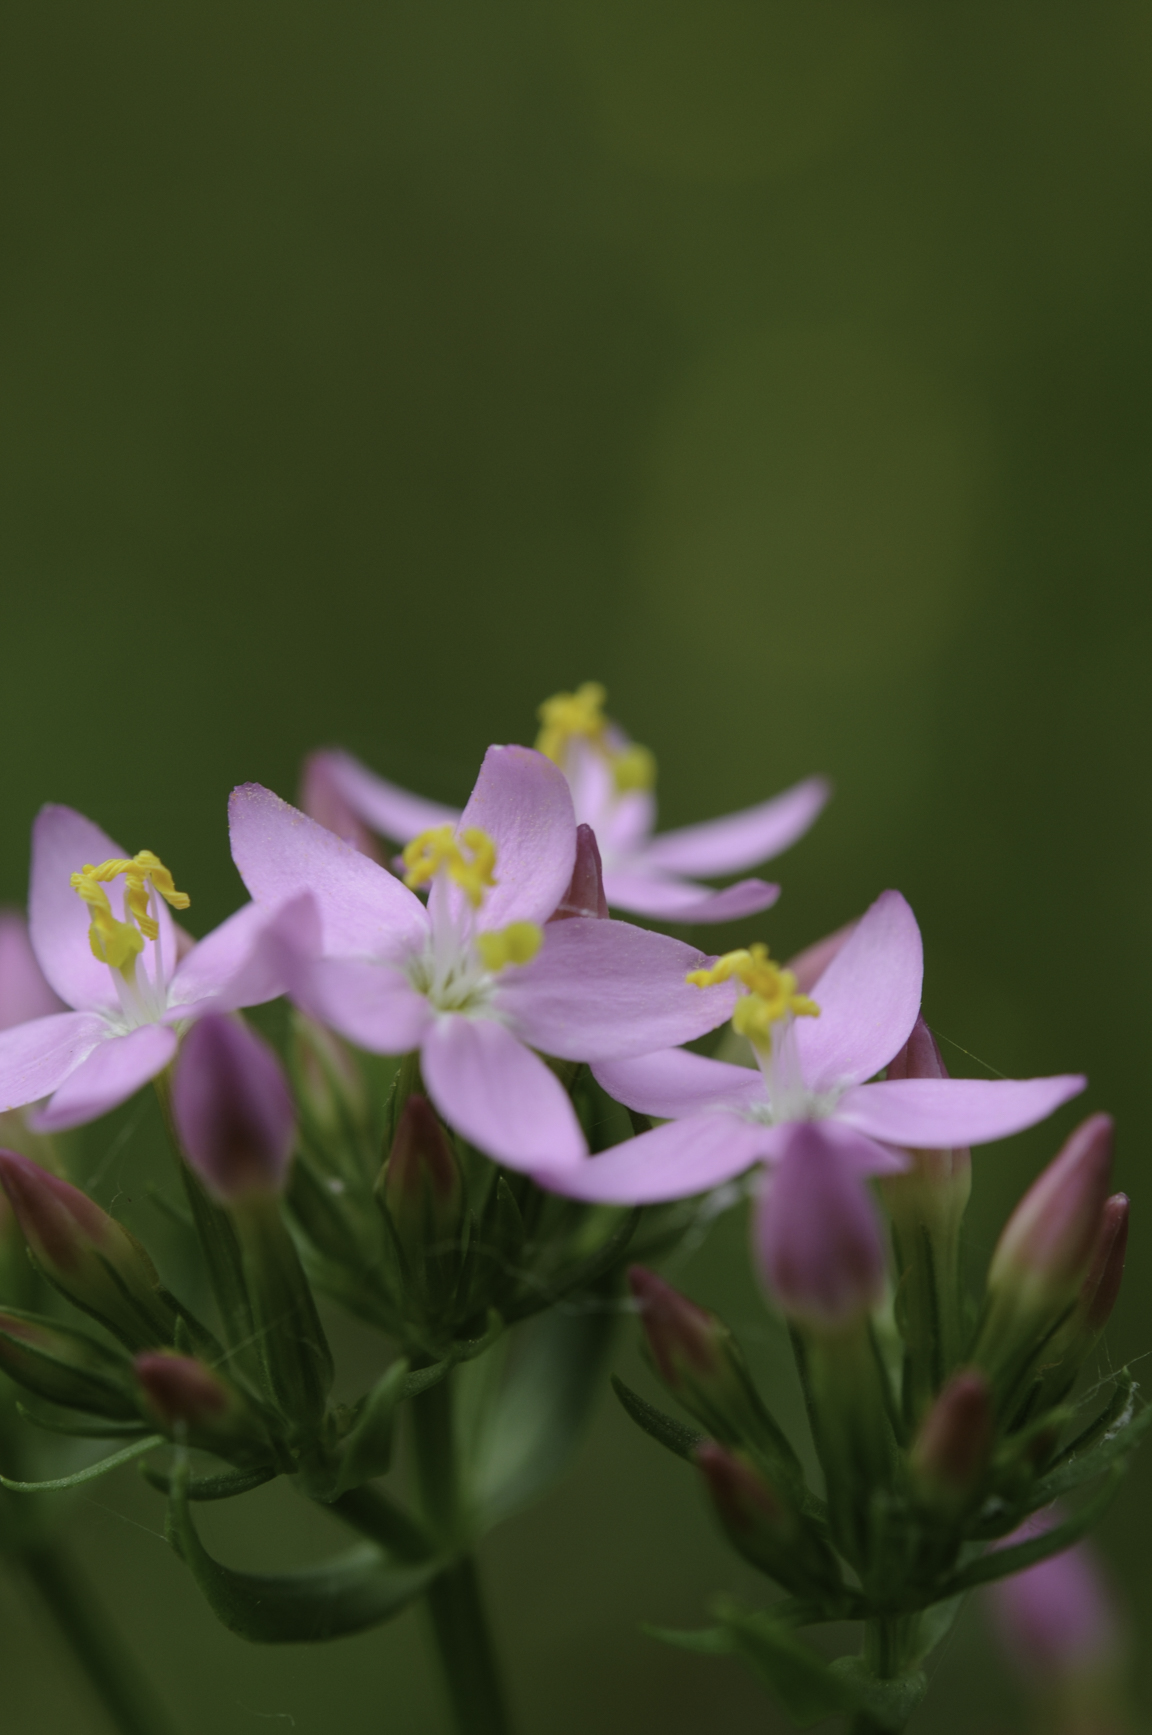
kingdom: Plantae
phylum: Tracheophyta
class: Magnoliopsida
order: Gentianales
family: Gentianaceae
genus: Centaurium
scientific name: Centaurium erythraea
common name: Common centaury
